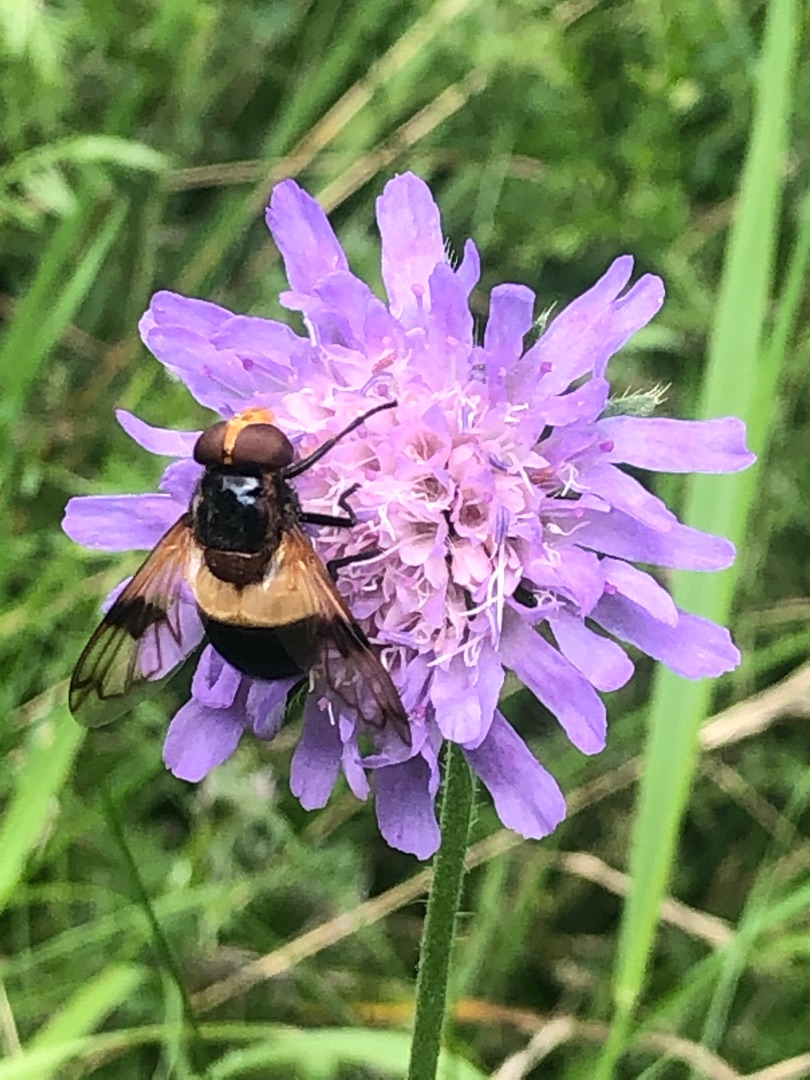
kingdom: Animalia
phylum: Arthropoda
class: Insecta
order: Diptera
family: Syrphidae
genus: Volucella
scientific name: Volucella pellucens
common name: Hvidbåndet humlesvirreflue
